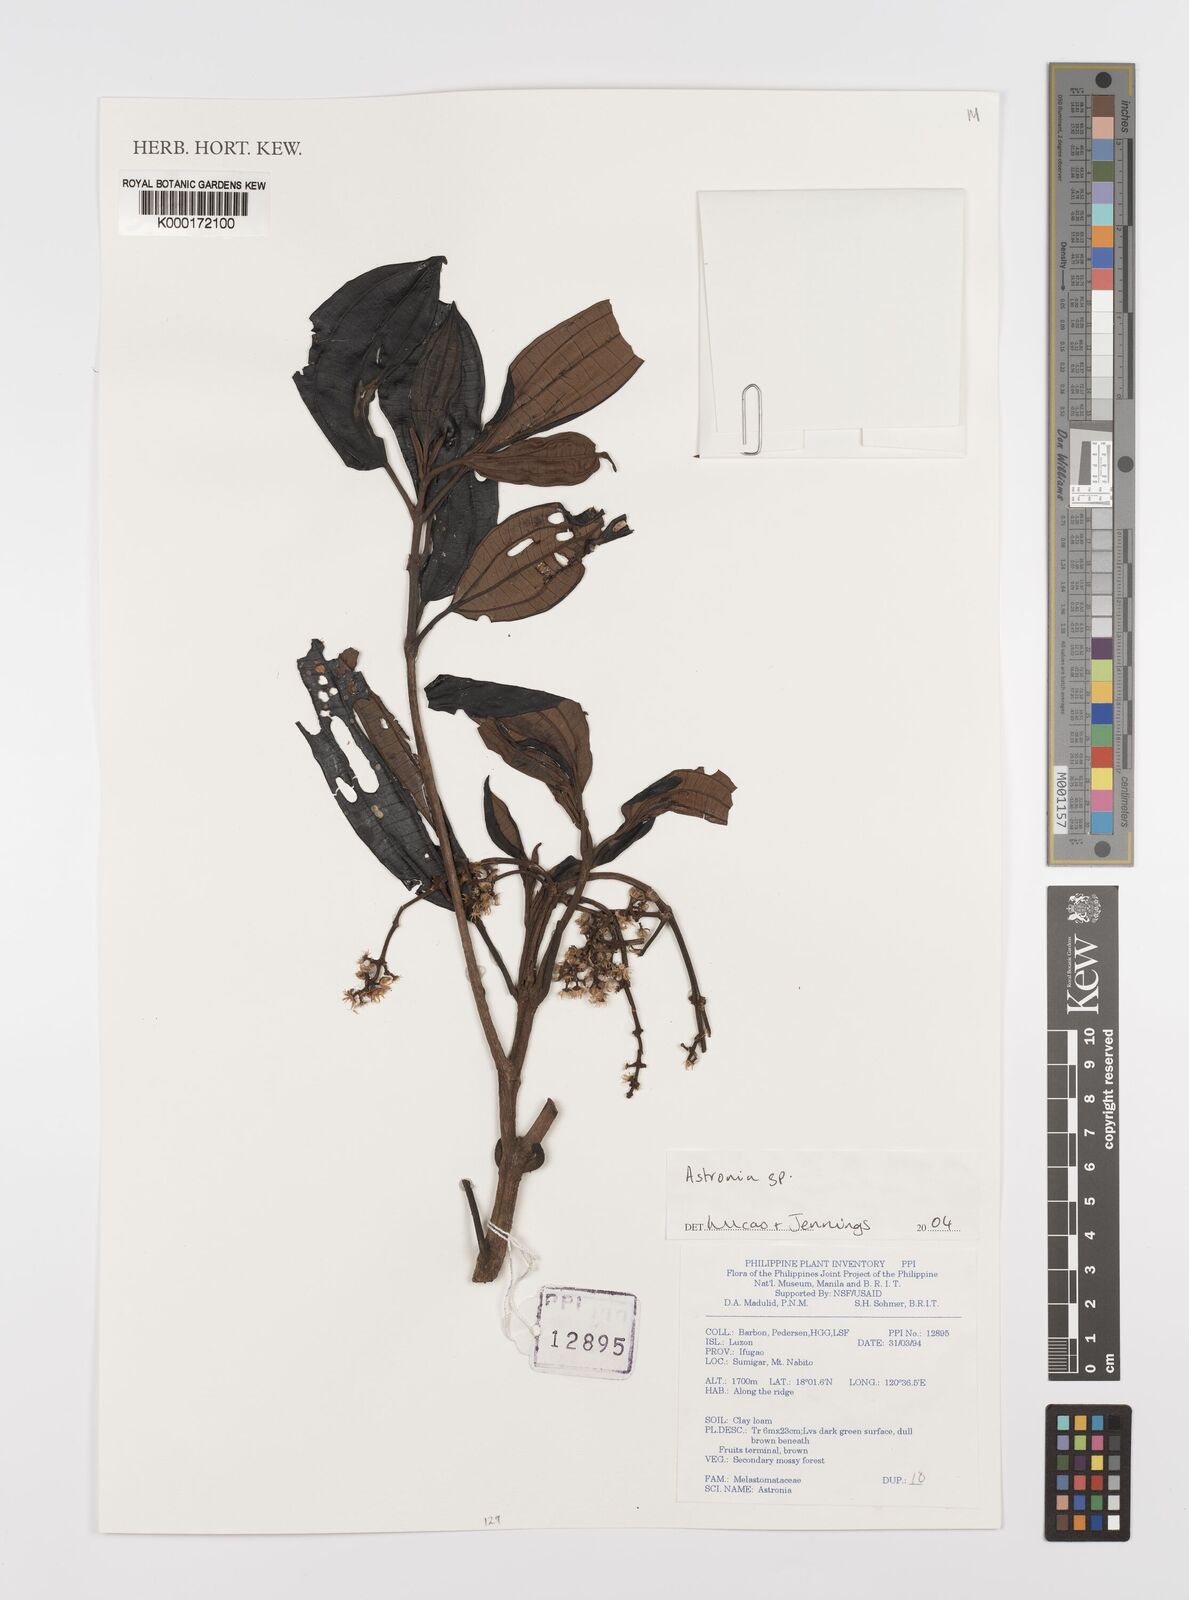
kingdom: Plantae
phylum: Tracheophyta
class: Magnoliopsida
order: Myrtales
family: Melastomataceae
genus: Astronia
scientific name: Astronia
